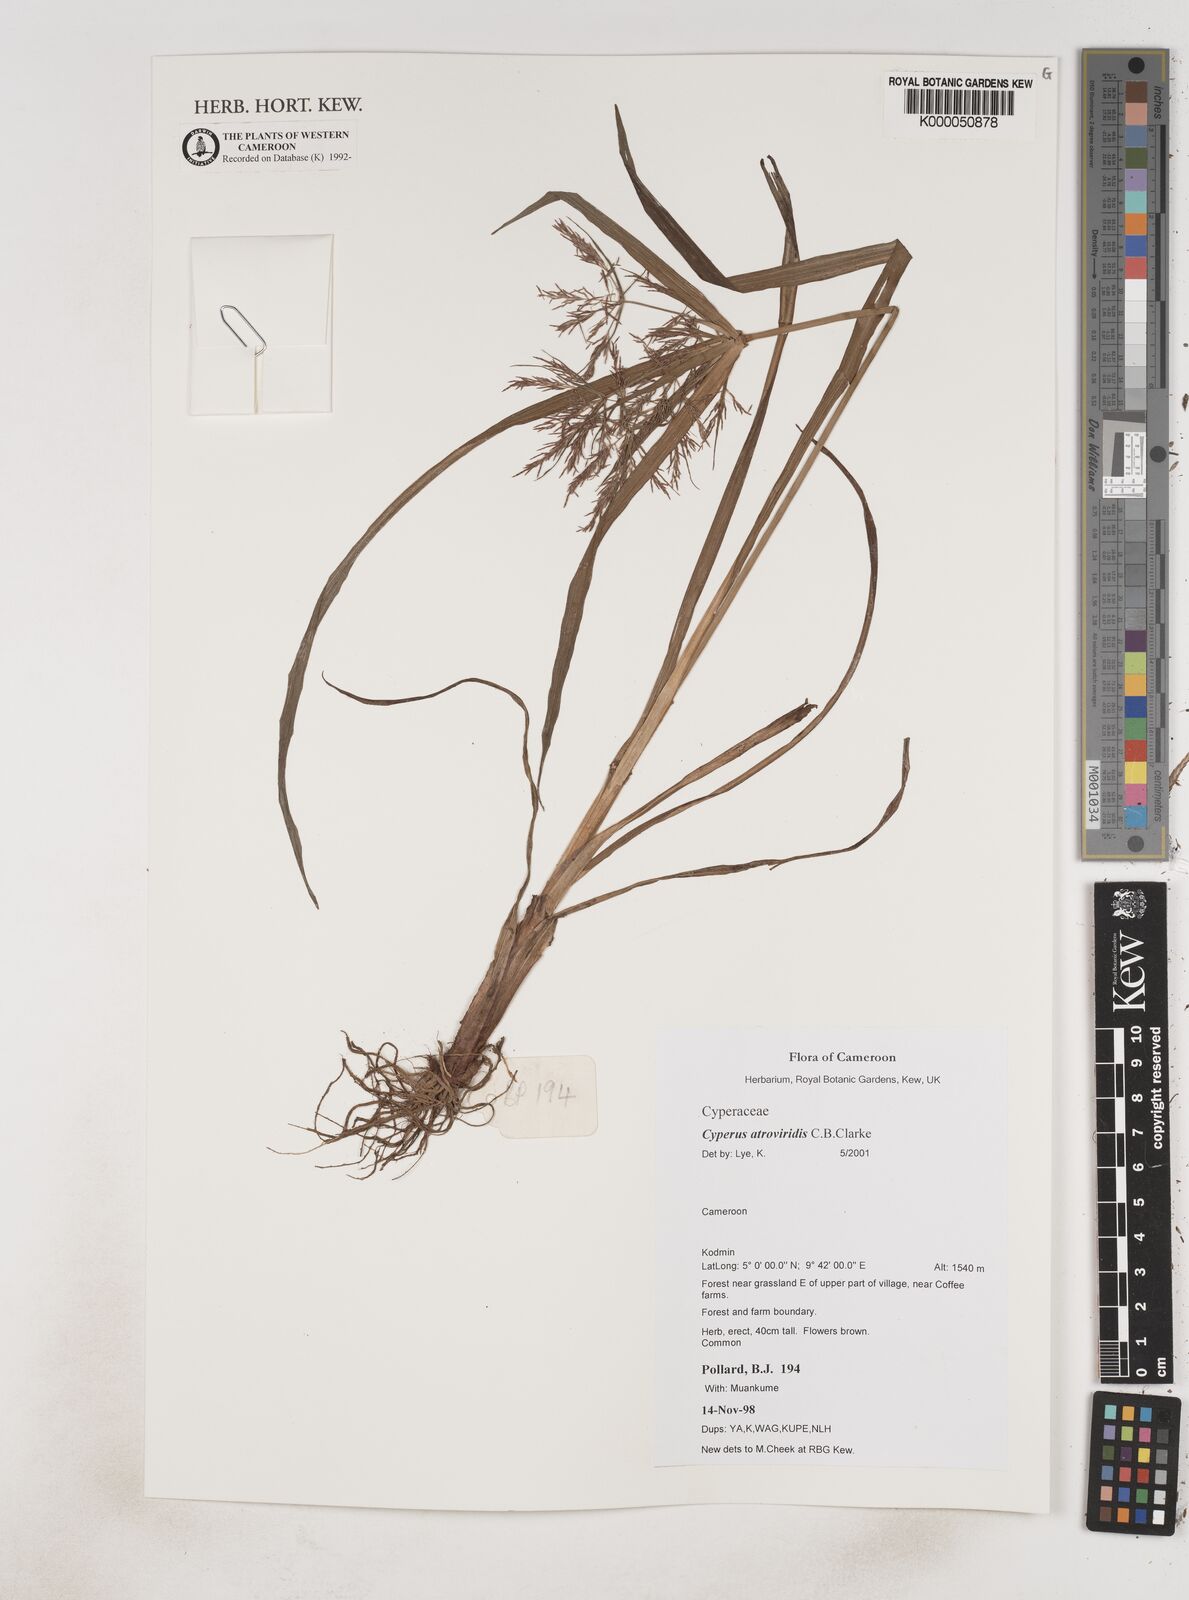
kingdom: Plantae
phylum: Tracheophyta
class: Liliopsida
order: Poales
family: Cyperaceae
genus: Cyperus
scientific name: Cyperus aterrimus
